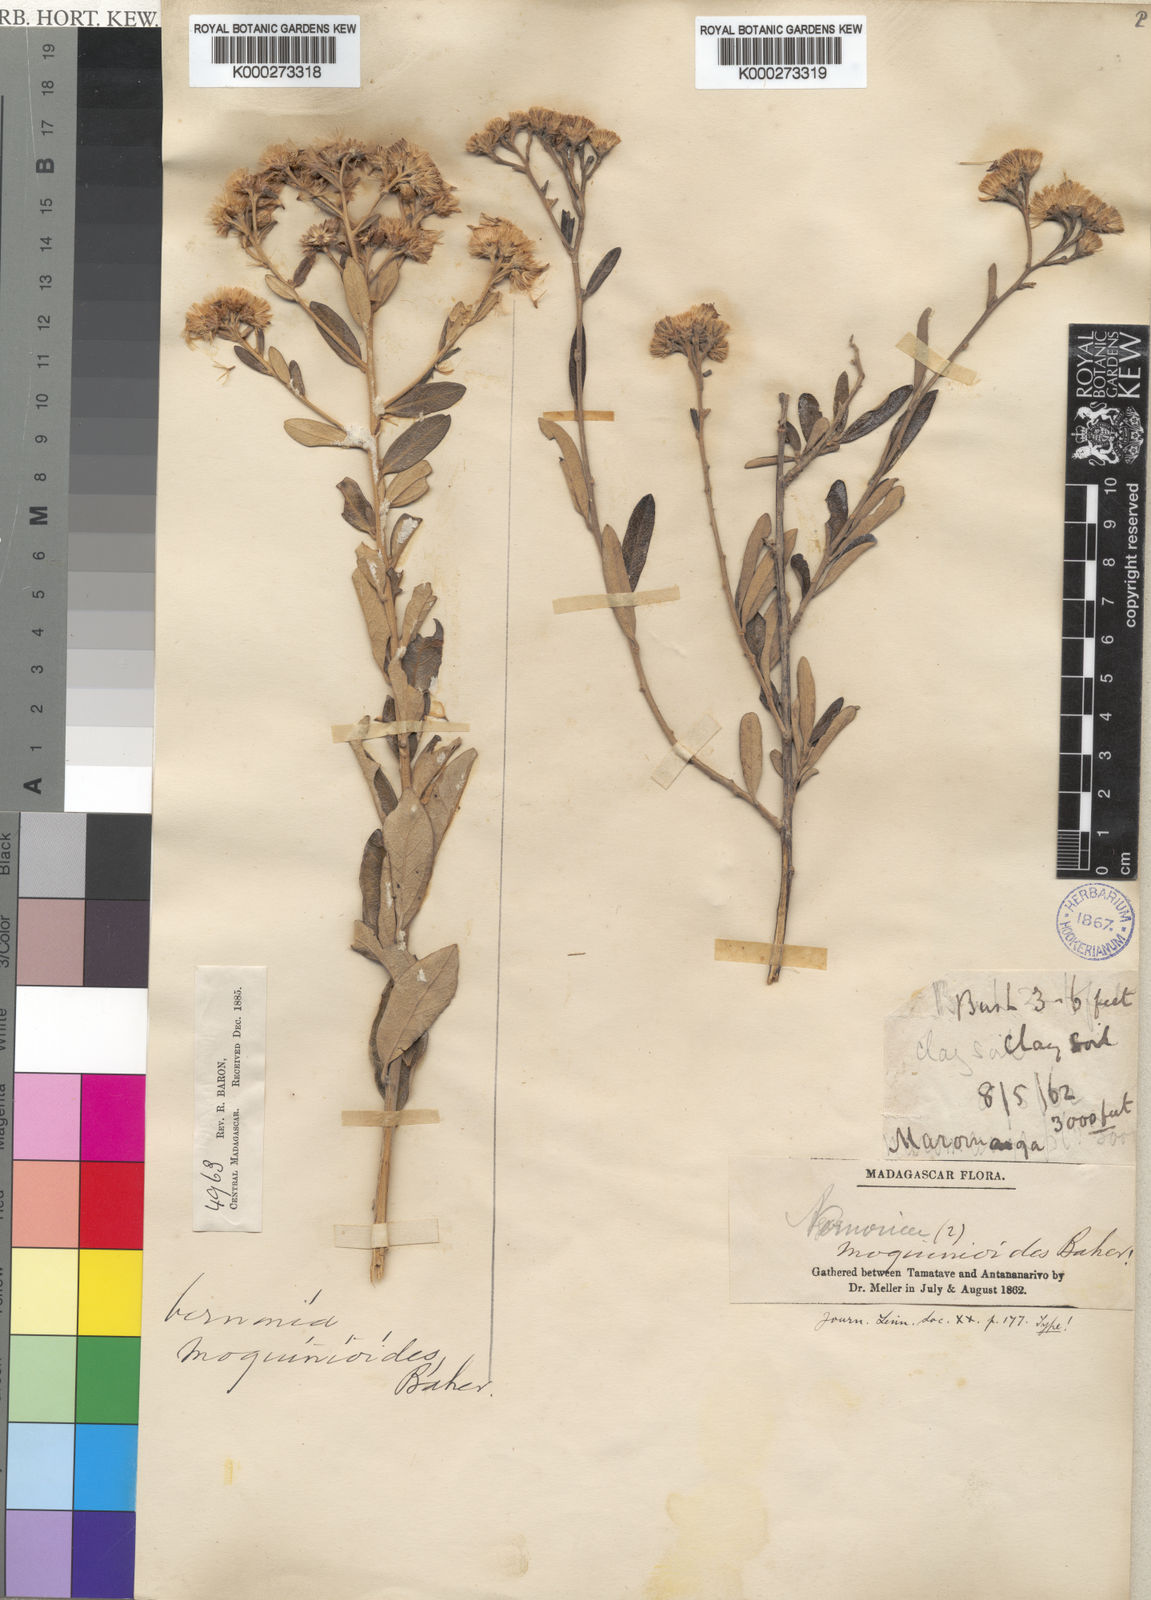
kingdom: Plantae
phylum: Tracheophyta
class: Magnoliopsida
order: Asterales
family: Asteraceae
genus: Distephanus
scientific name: Distephanus garnierianus
